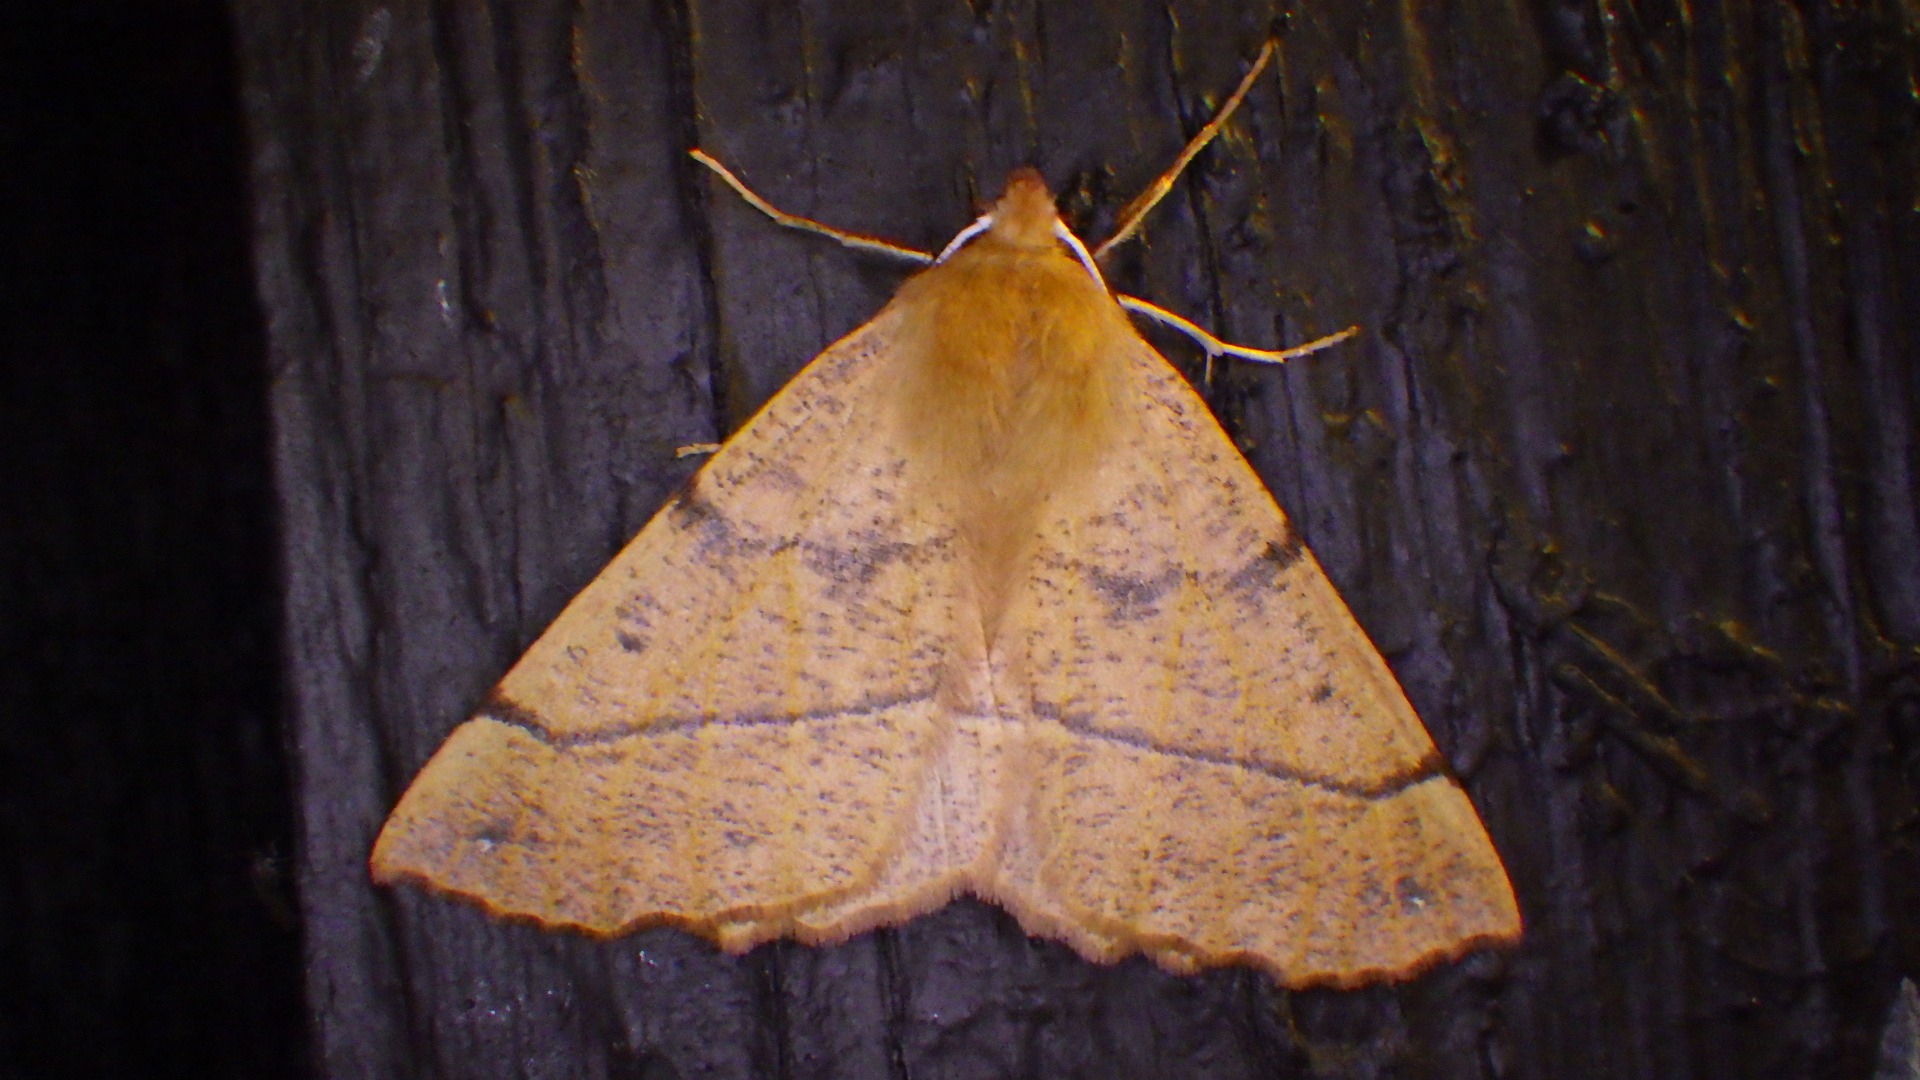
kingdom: Animalia
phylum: Arthropoda
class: Insecta
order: Lepidoptera
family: Geometridae
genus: Colotois
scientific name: Colotois pennaria
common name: Løvfaldsmåler
